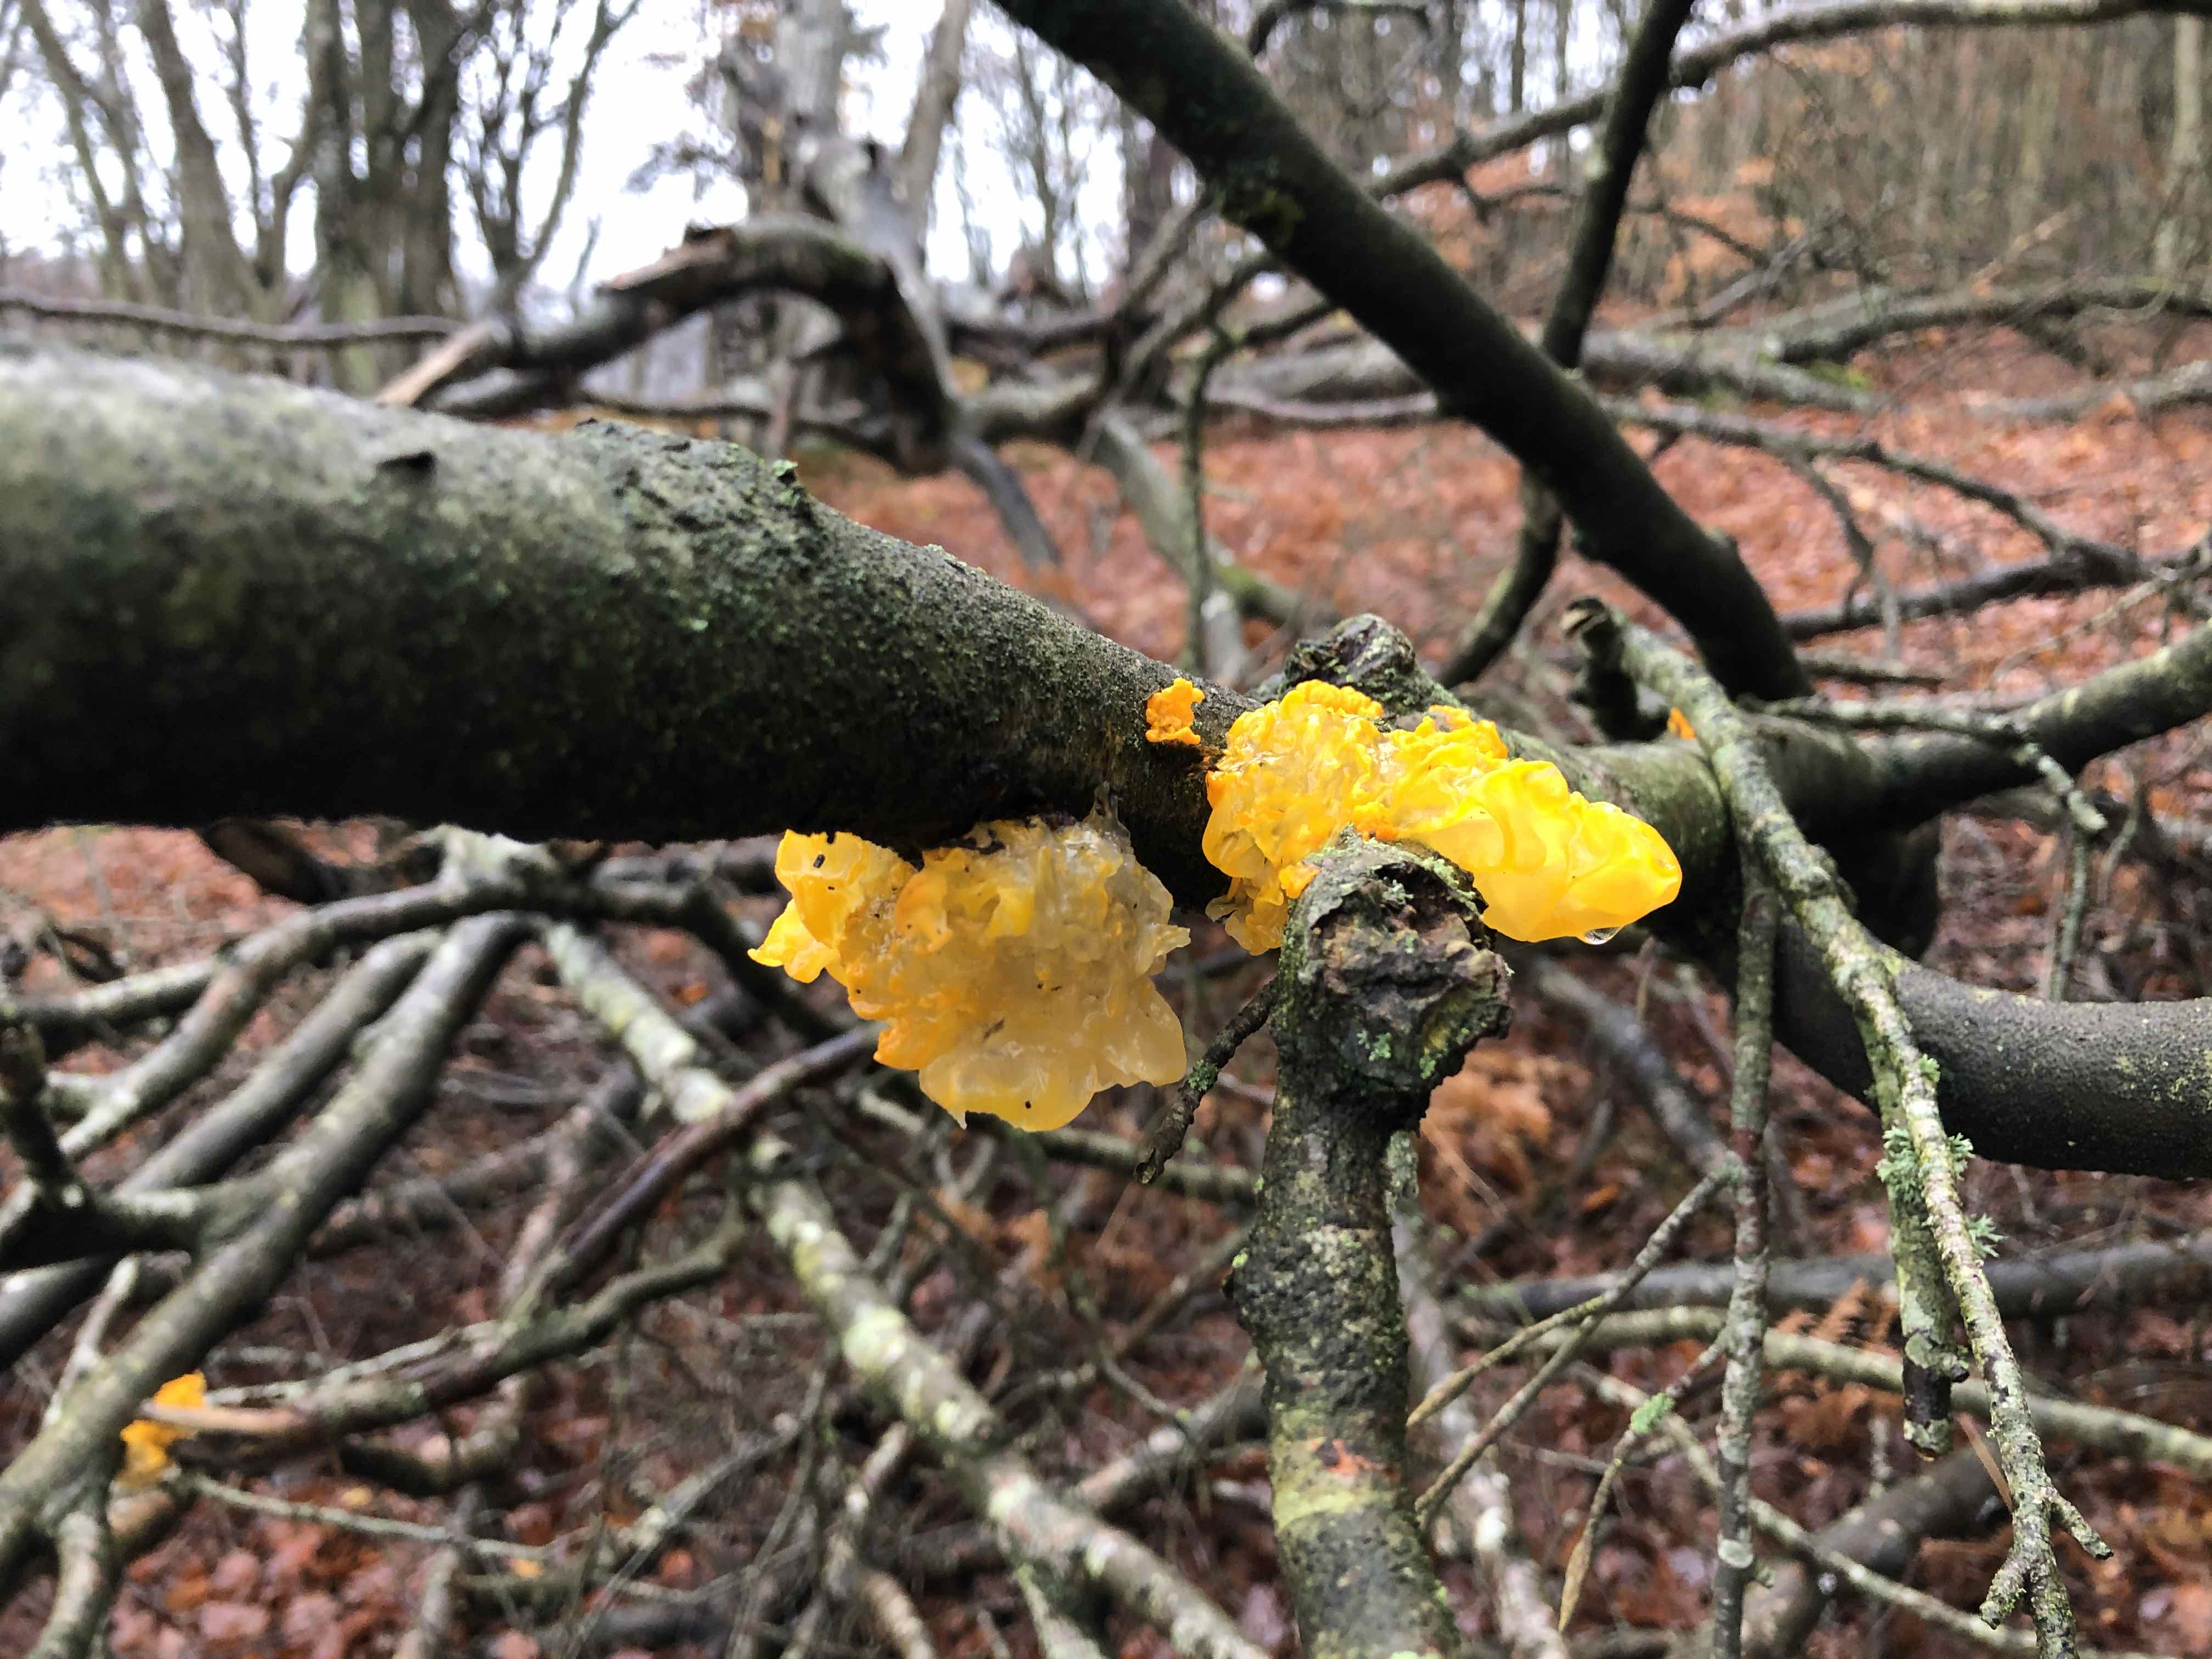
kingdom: Fungi
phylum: Basidiomycota
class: Tremellomycetes
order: Tremellales
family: Tremellaceae
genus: Tremella
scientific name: Tremella mesenterica
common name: gul bævresvamp
